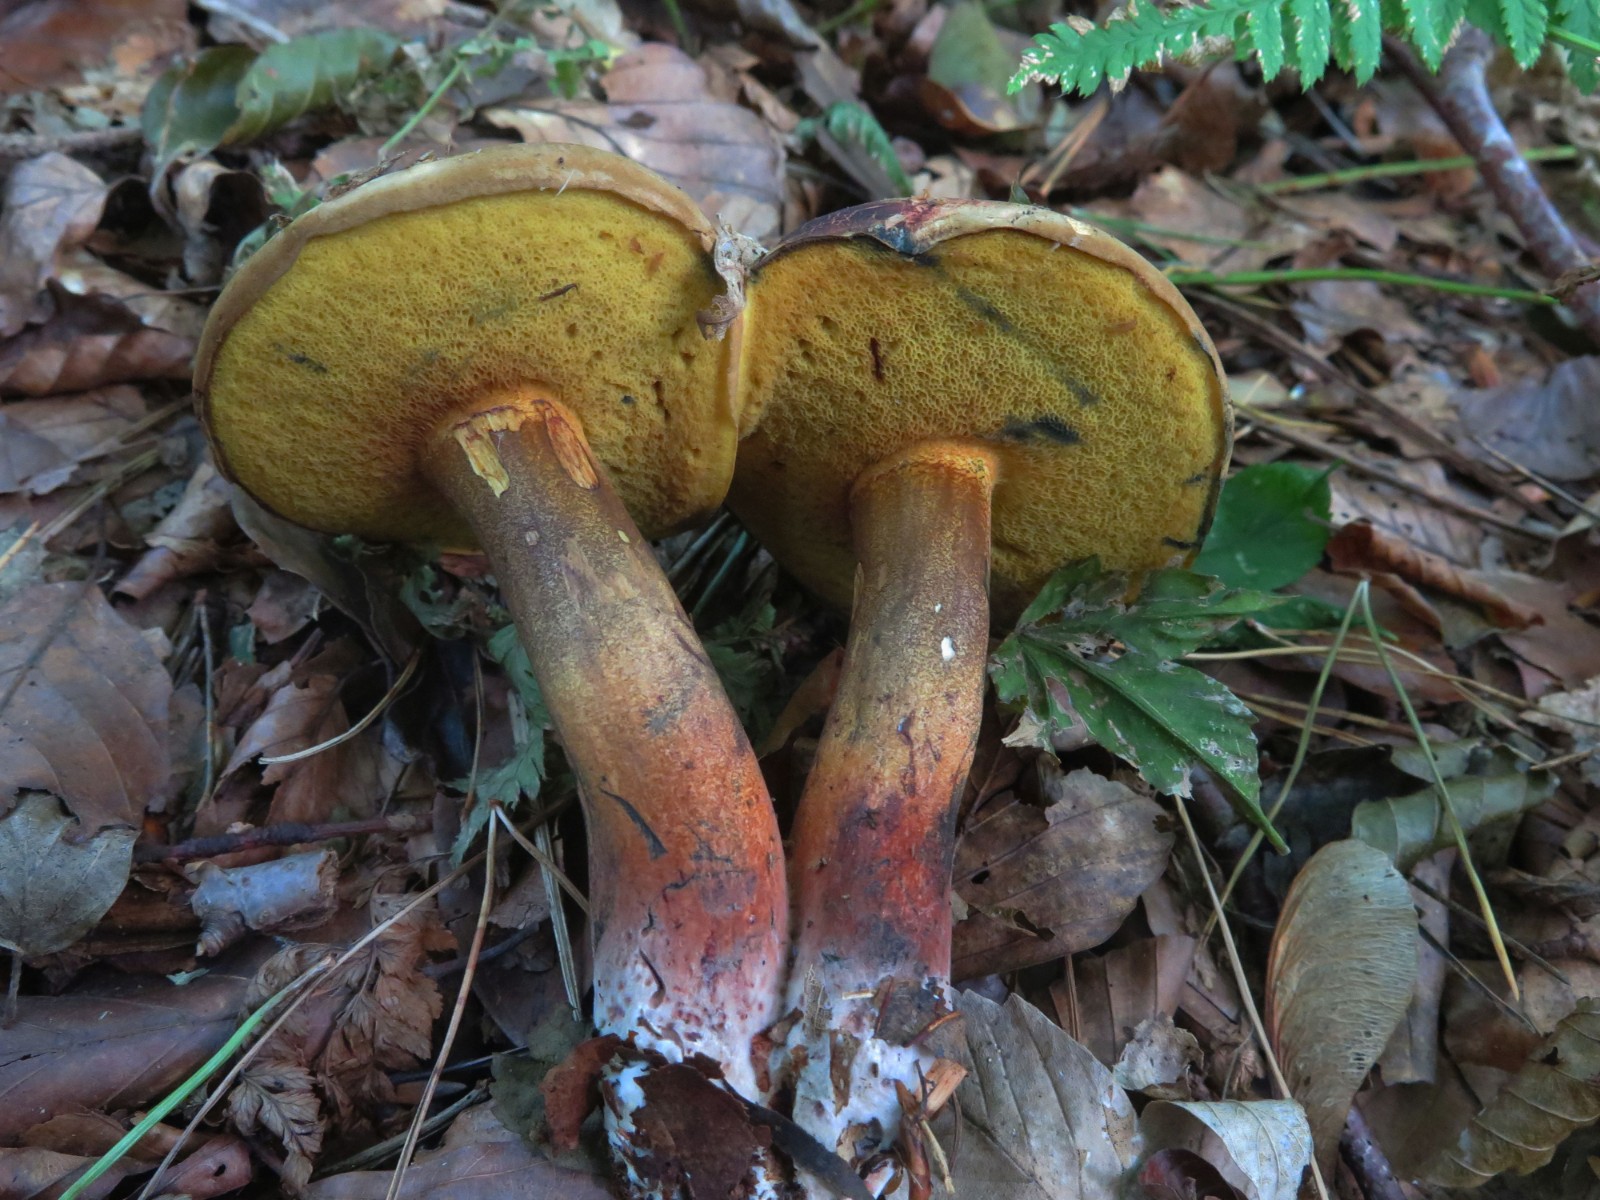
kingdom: Fungi
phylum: Basidiomycota
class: Agaricomycetes
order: Boletales
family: Boletaceae
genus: Cyanoboletus
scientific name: Cyanoboletus pulverulentus
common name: sortblånende rørhat
